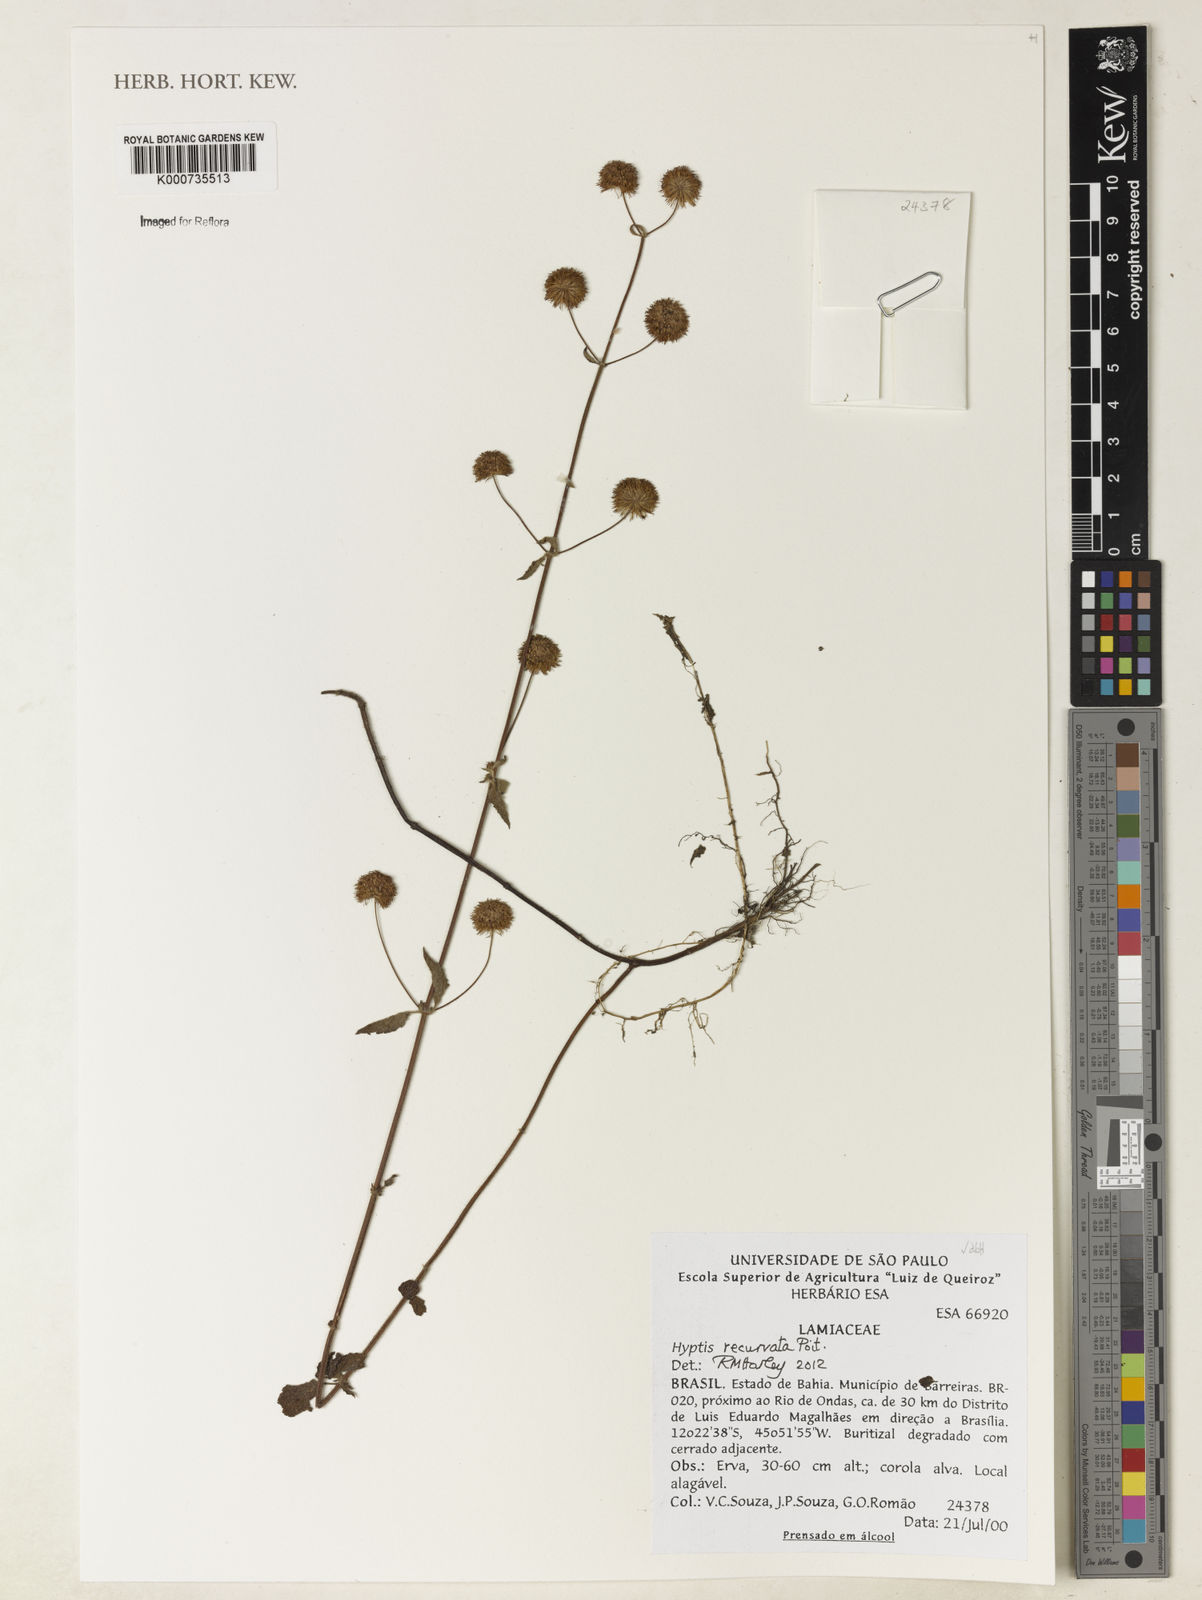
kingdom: Plantae
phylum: Tracheophyta
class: Magnoliopsida
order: Lamiales
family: Lamiaceae
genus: Hyptis
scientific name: Hyptis recurvata
